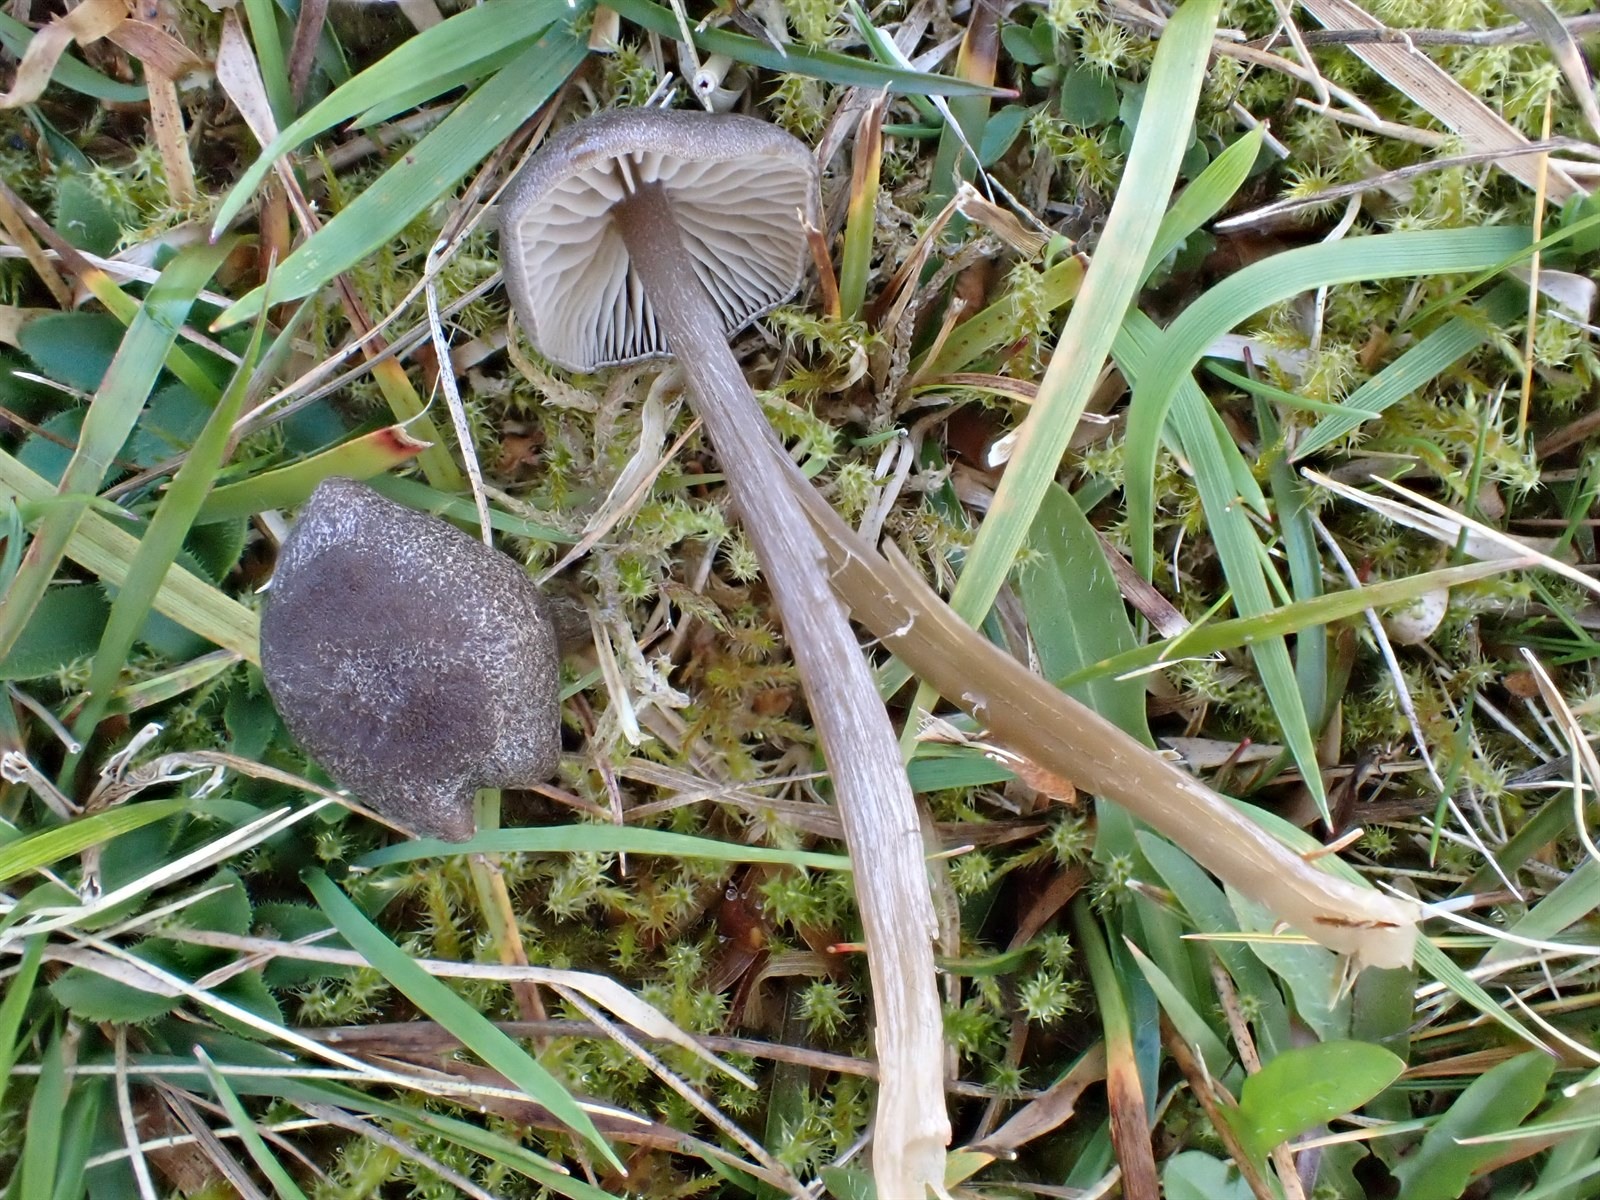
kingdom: Fungi
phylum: Basidiomycota
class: Agaricomycetes
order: Agaricales
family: Entolomataceae
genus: Entoloma
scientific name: Entoloma
